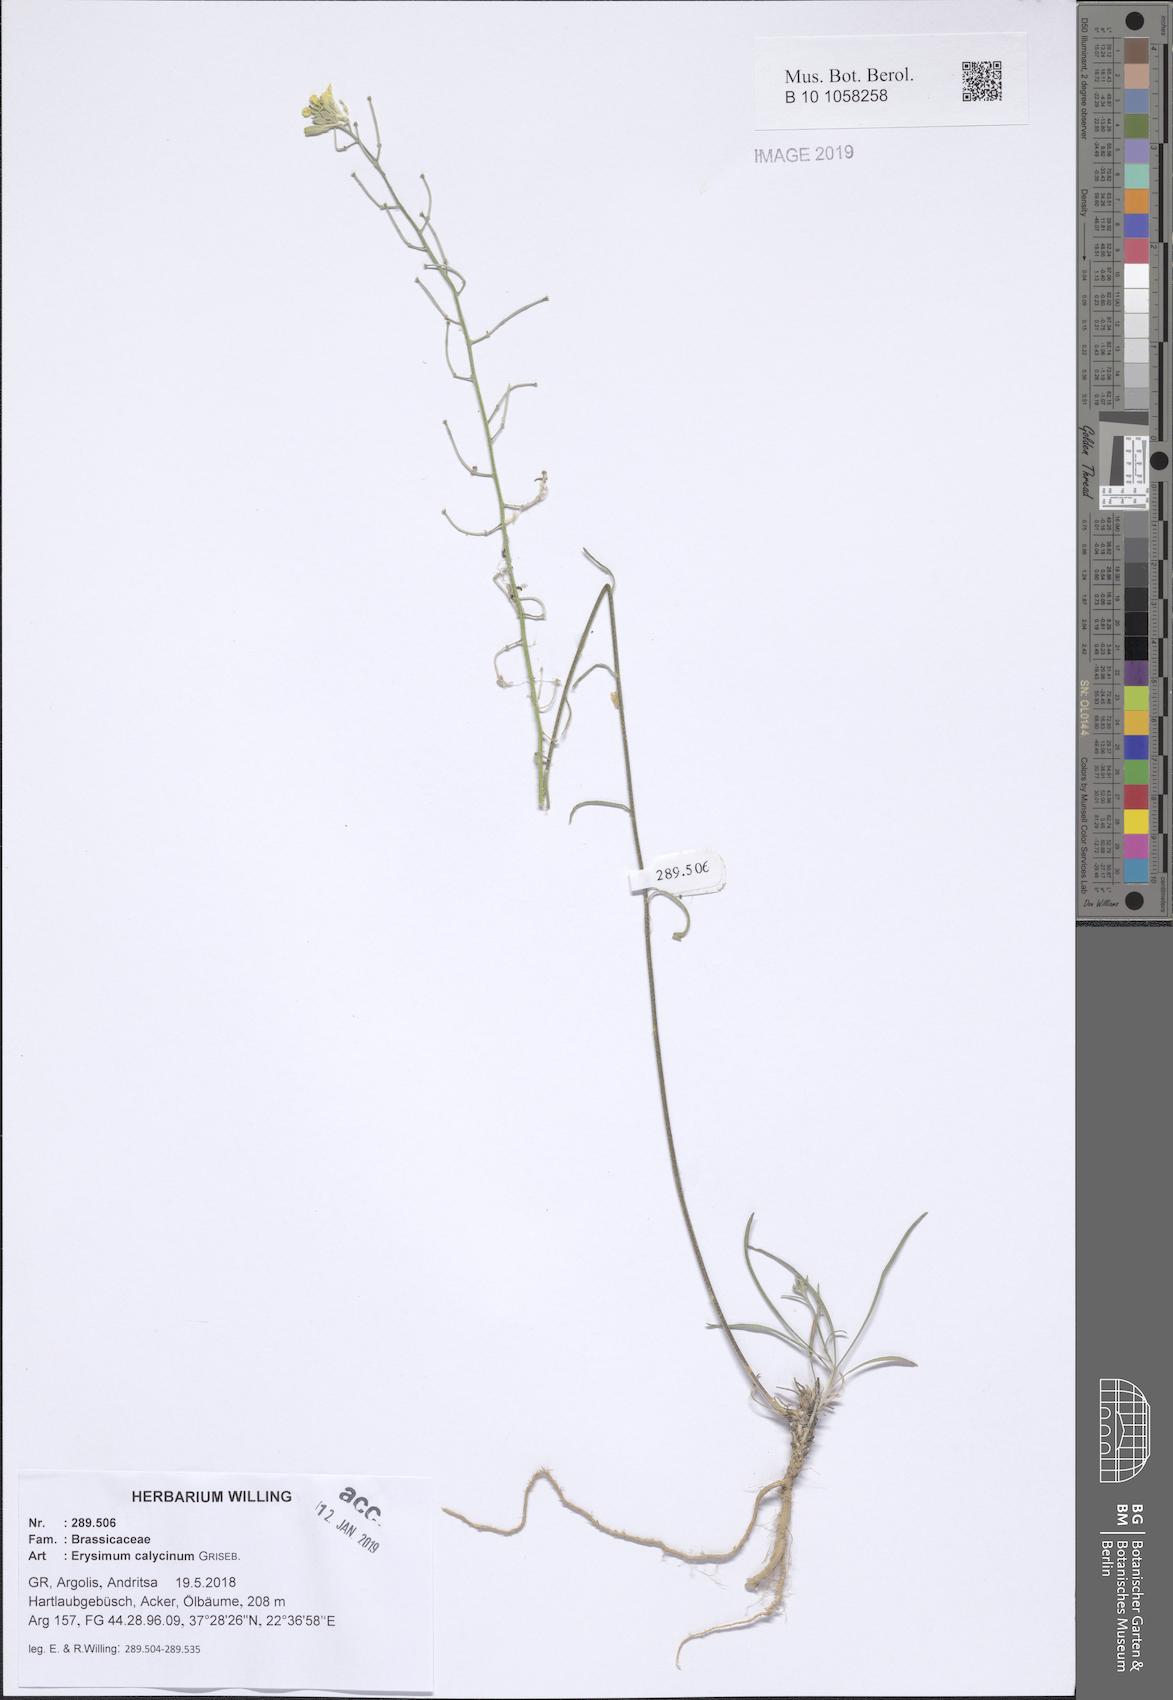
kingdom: Plantae
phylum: Tracheophyta
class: Magnoliopsida
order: Brassicales
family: Brassicaceae
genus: Erysimum
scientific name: Erysimum calycinum
